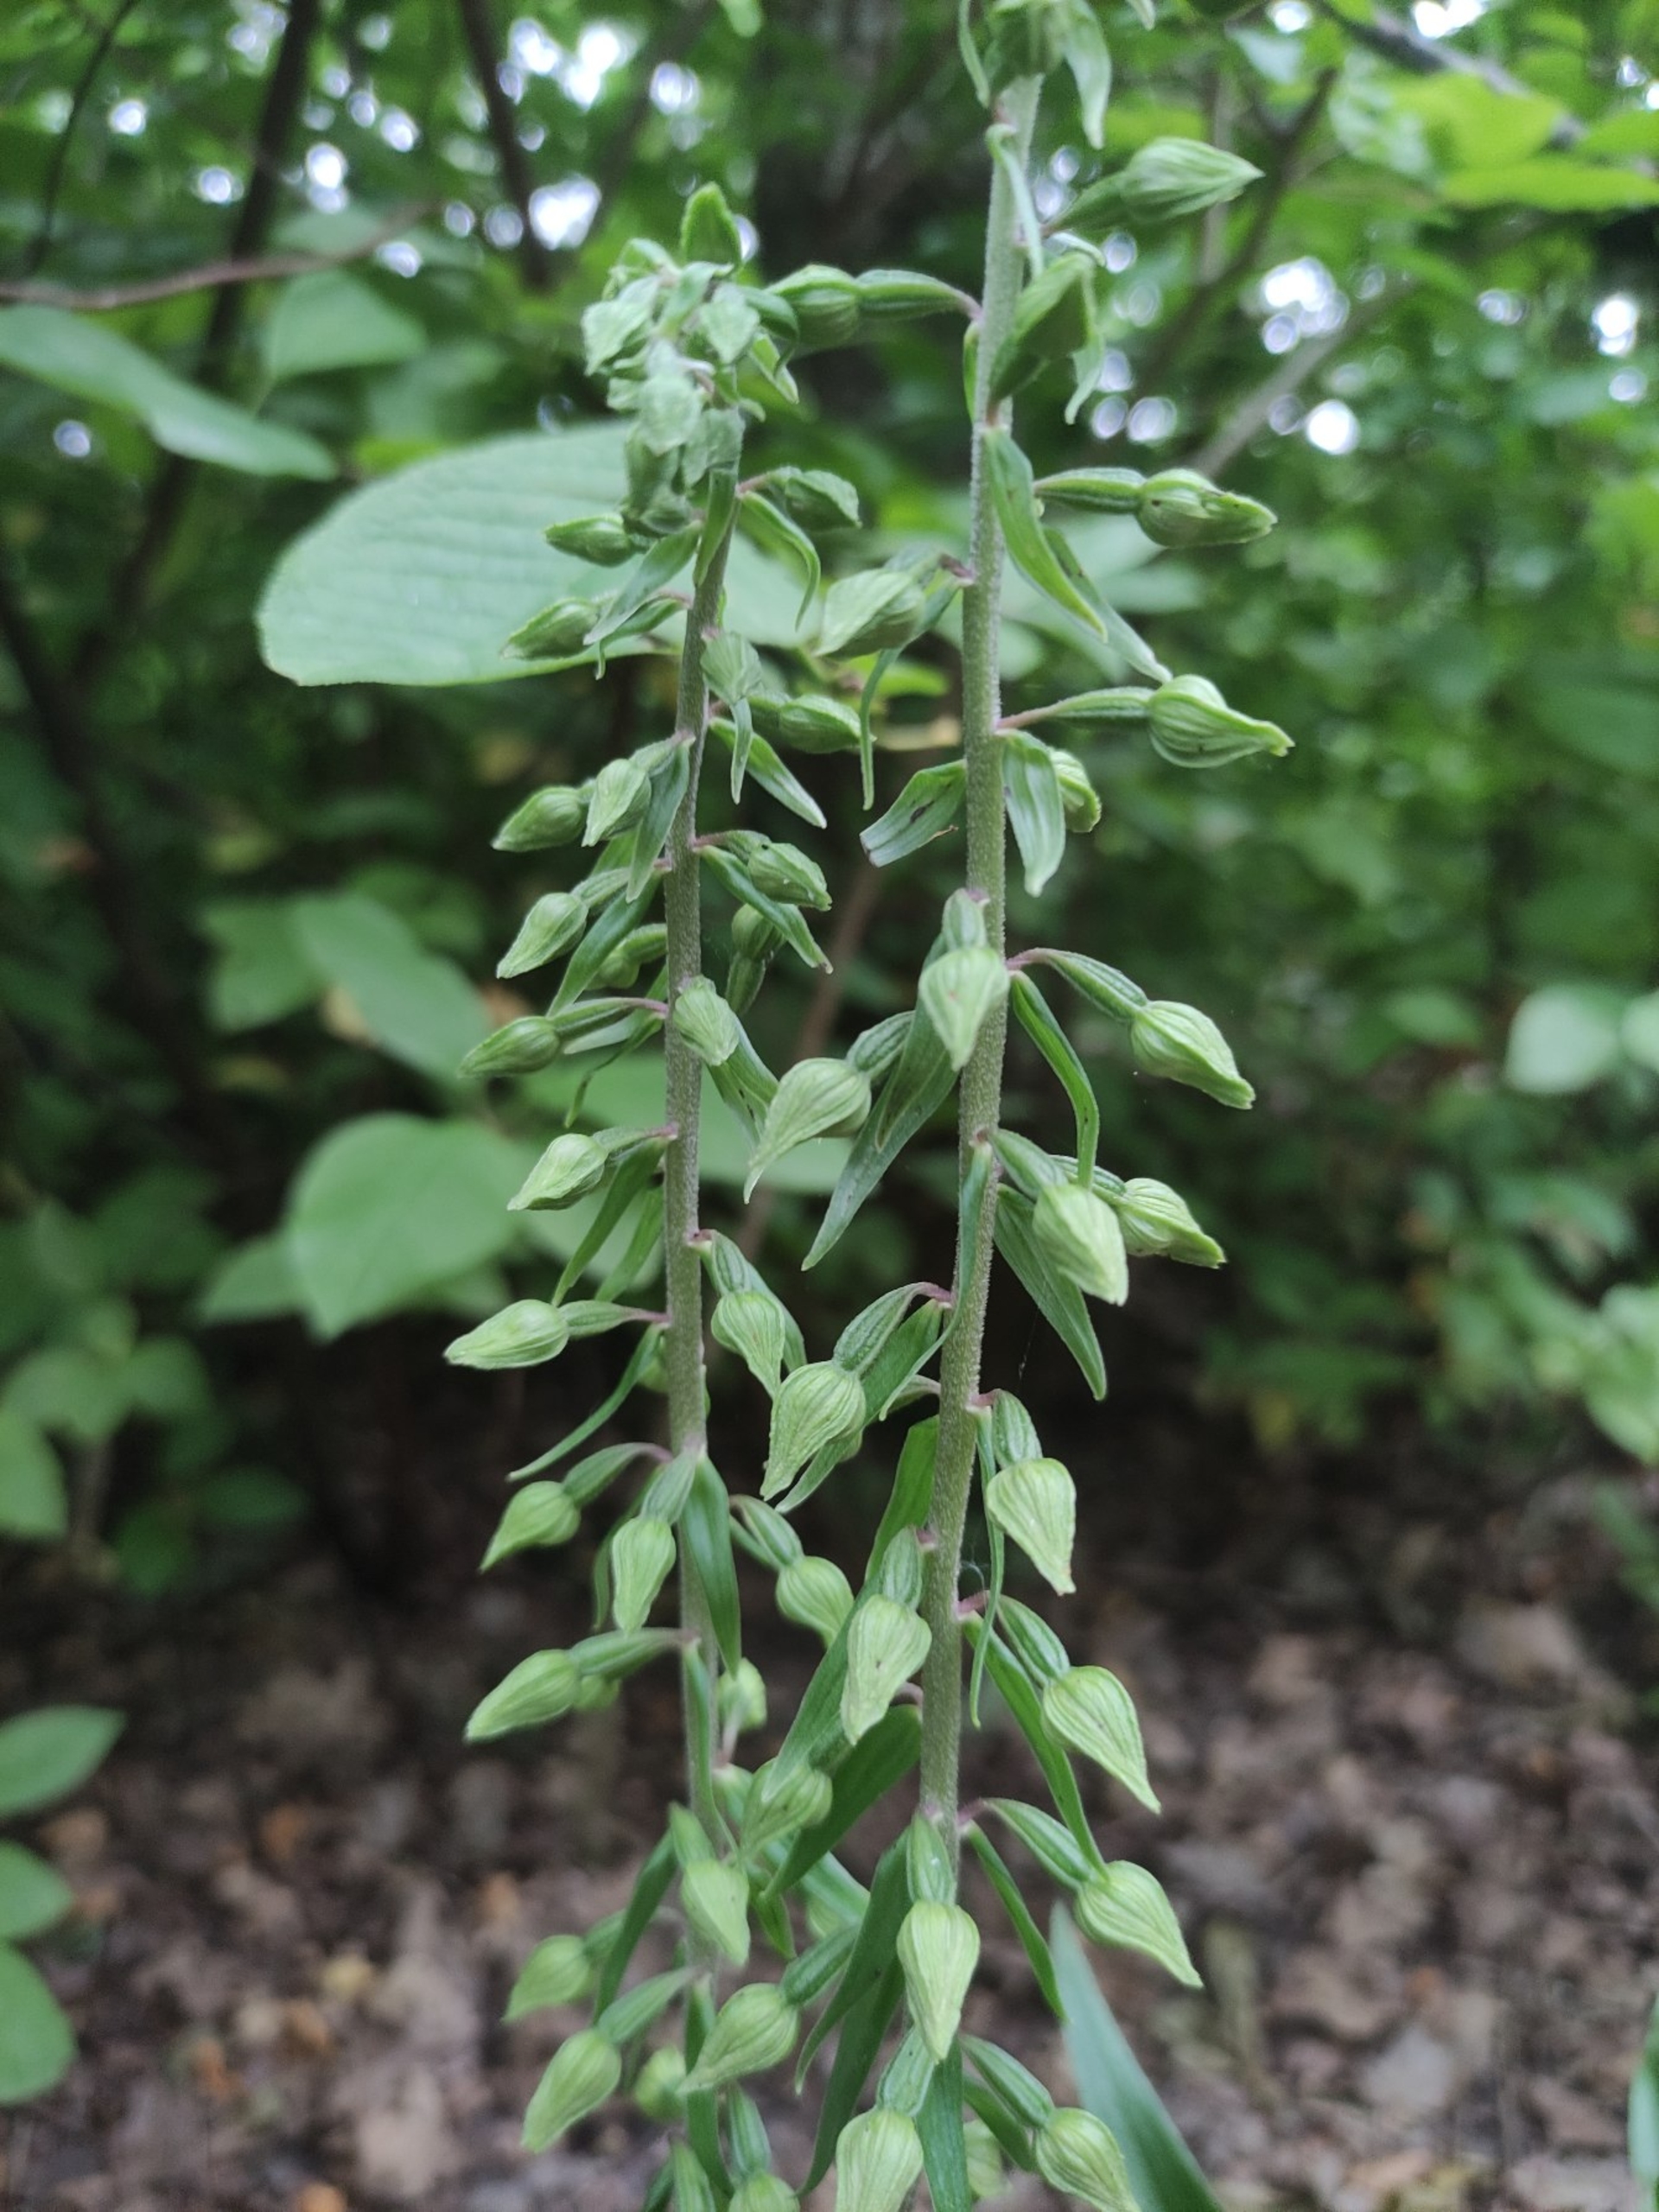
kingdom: Plantae
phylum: Tracheophyta
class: Liliopsida
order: Asparagales
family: Orchidaceae
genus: Epipactis
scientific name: Epipactis helleborine
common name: Skov-hullæbe
